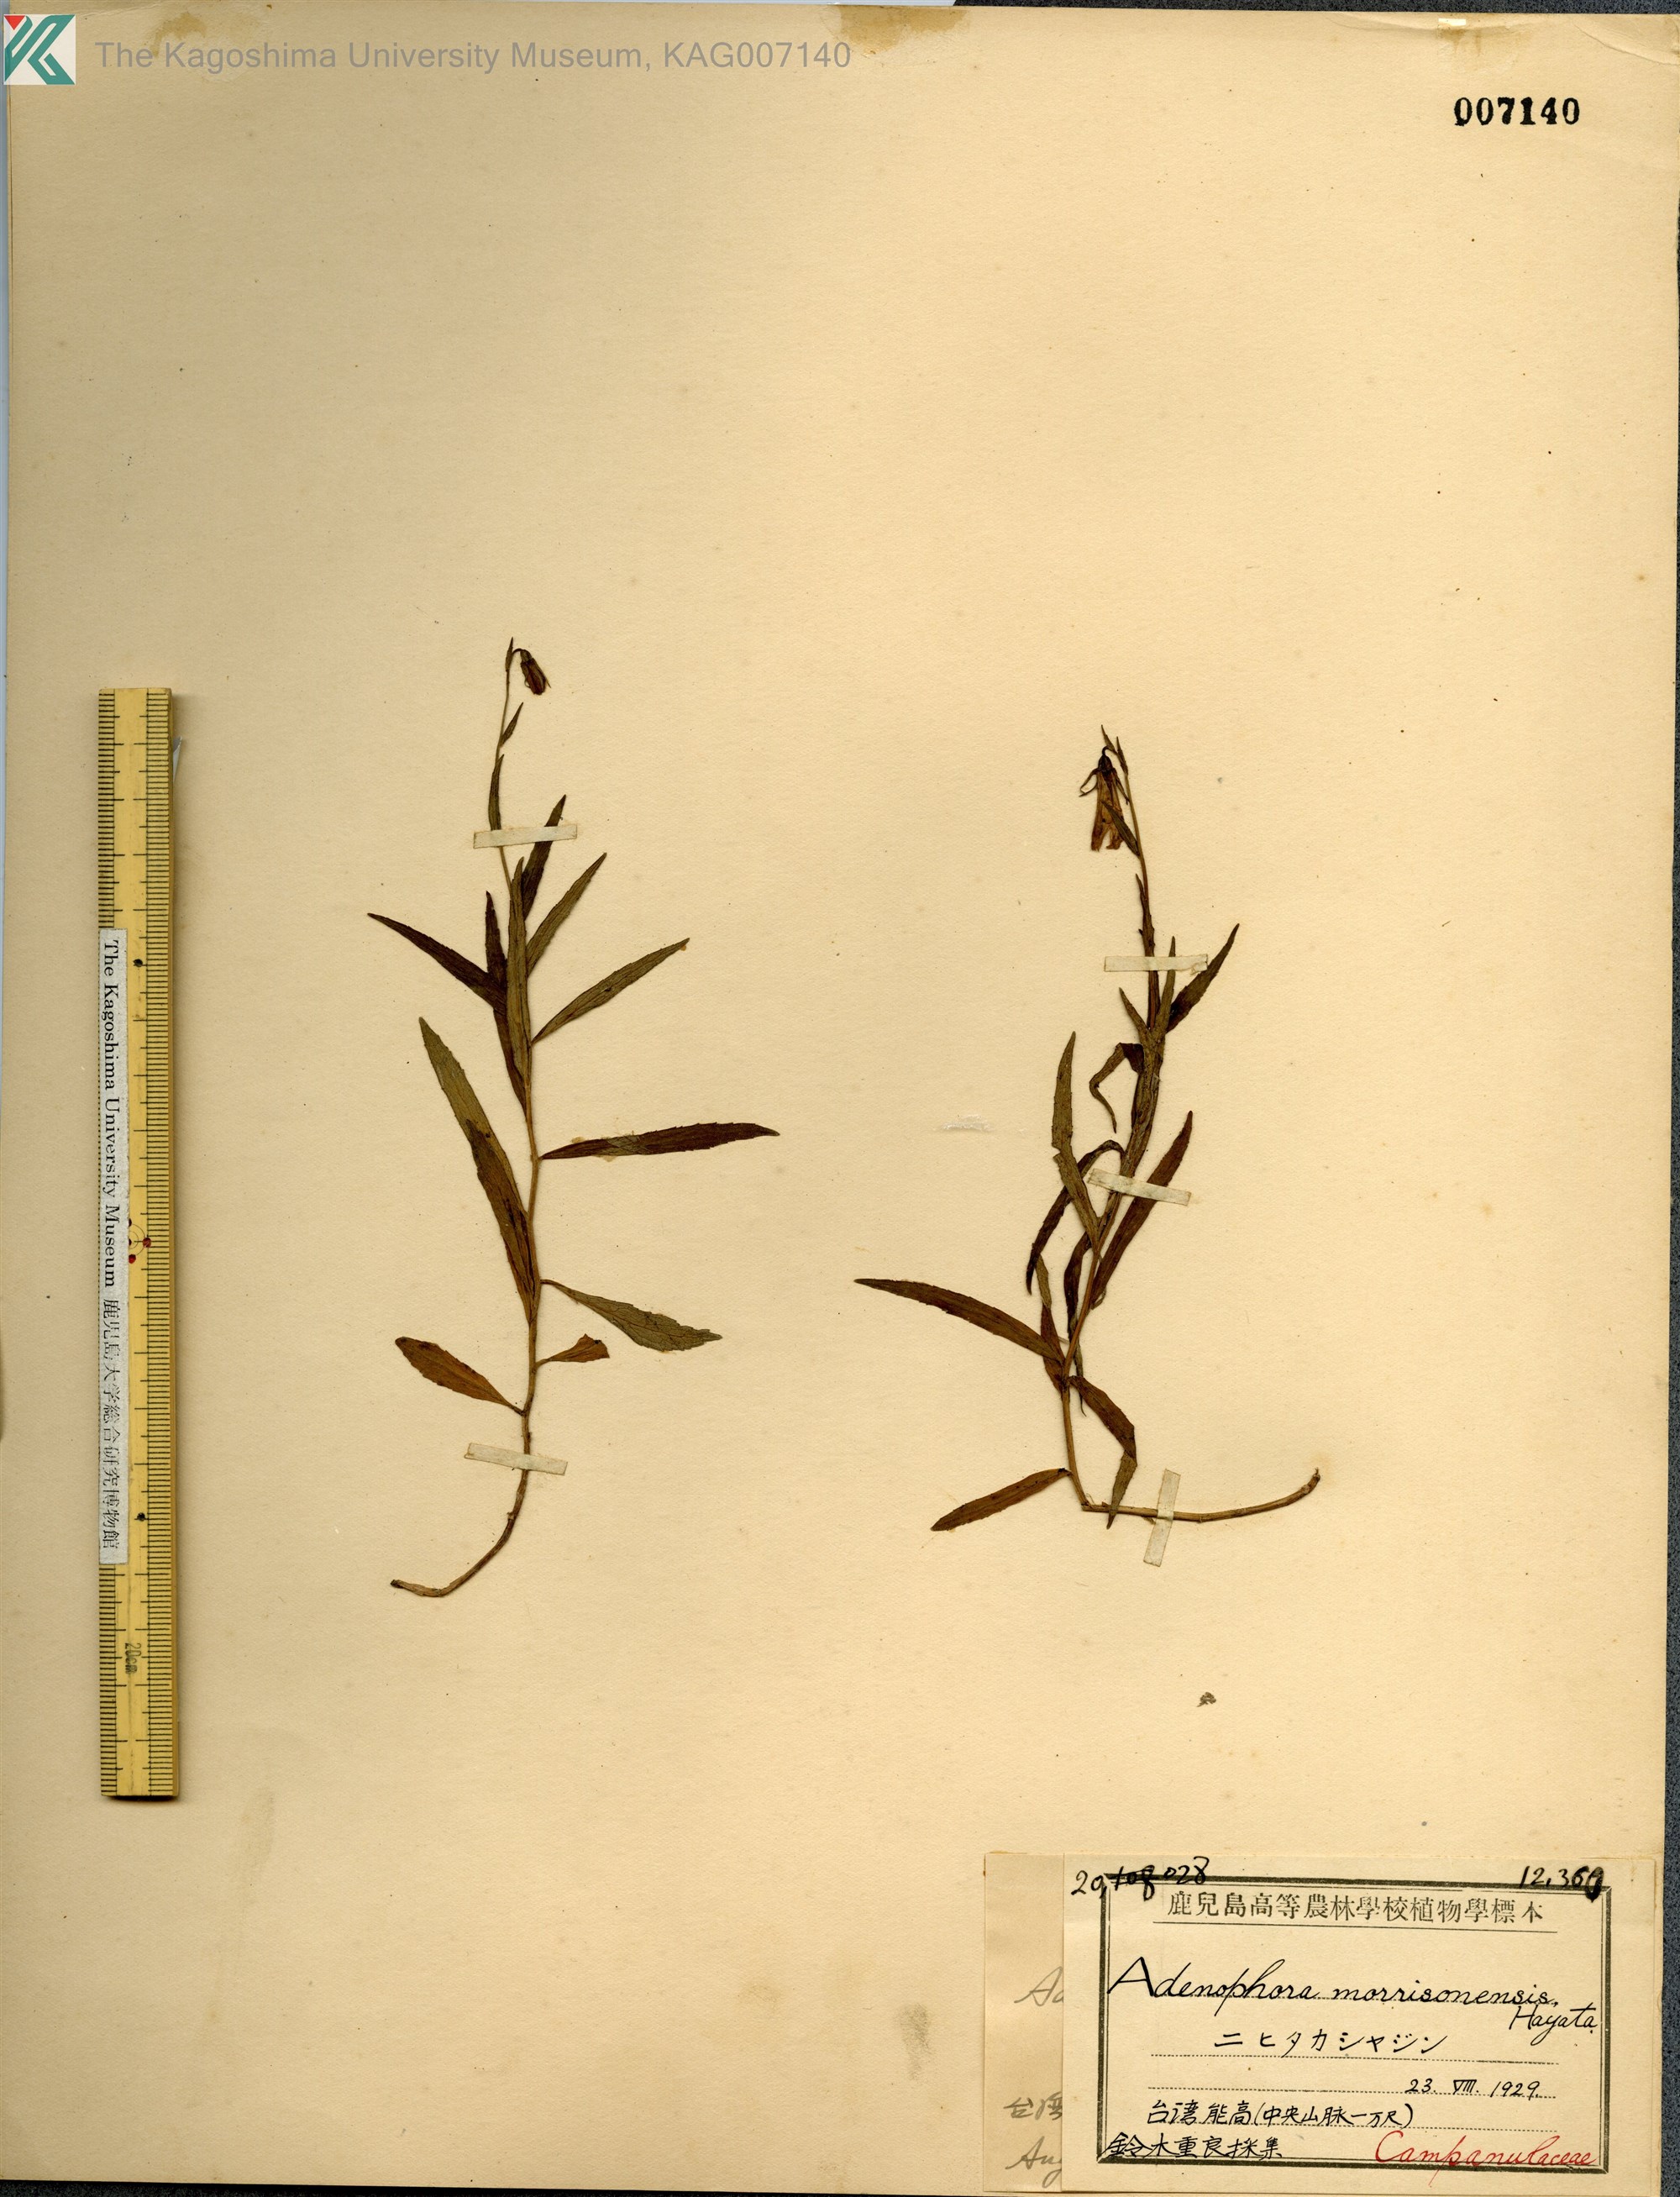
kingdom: Plantae
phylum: Tracheophyta
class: Magnoliopsida
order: Asterales
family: Campanulaceae
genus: Adenophora
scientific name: Adenophora morrisonensis
